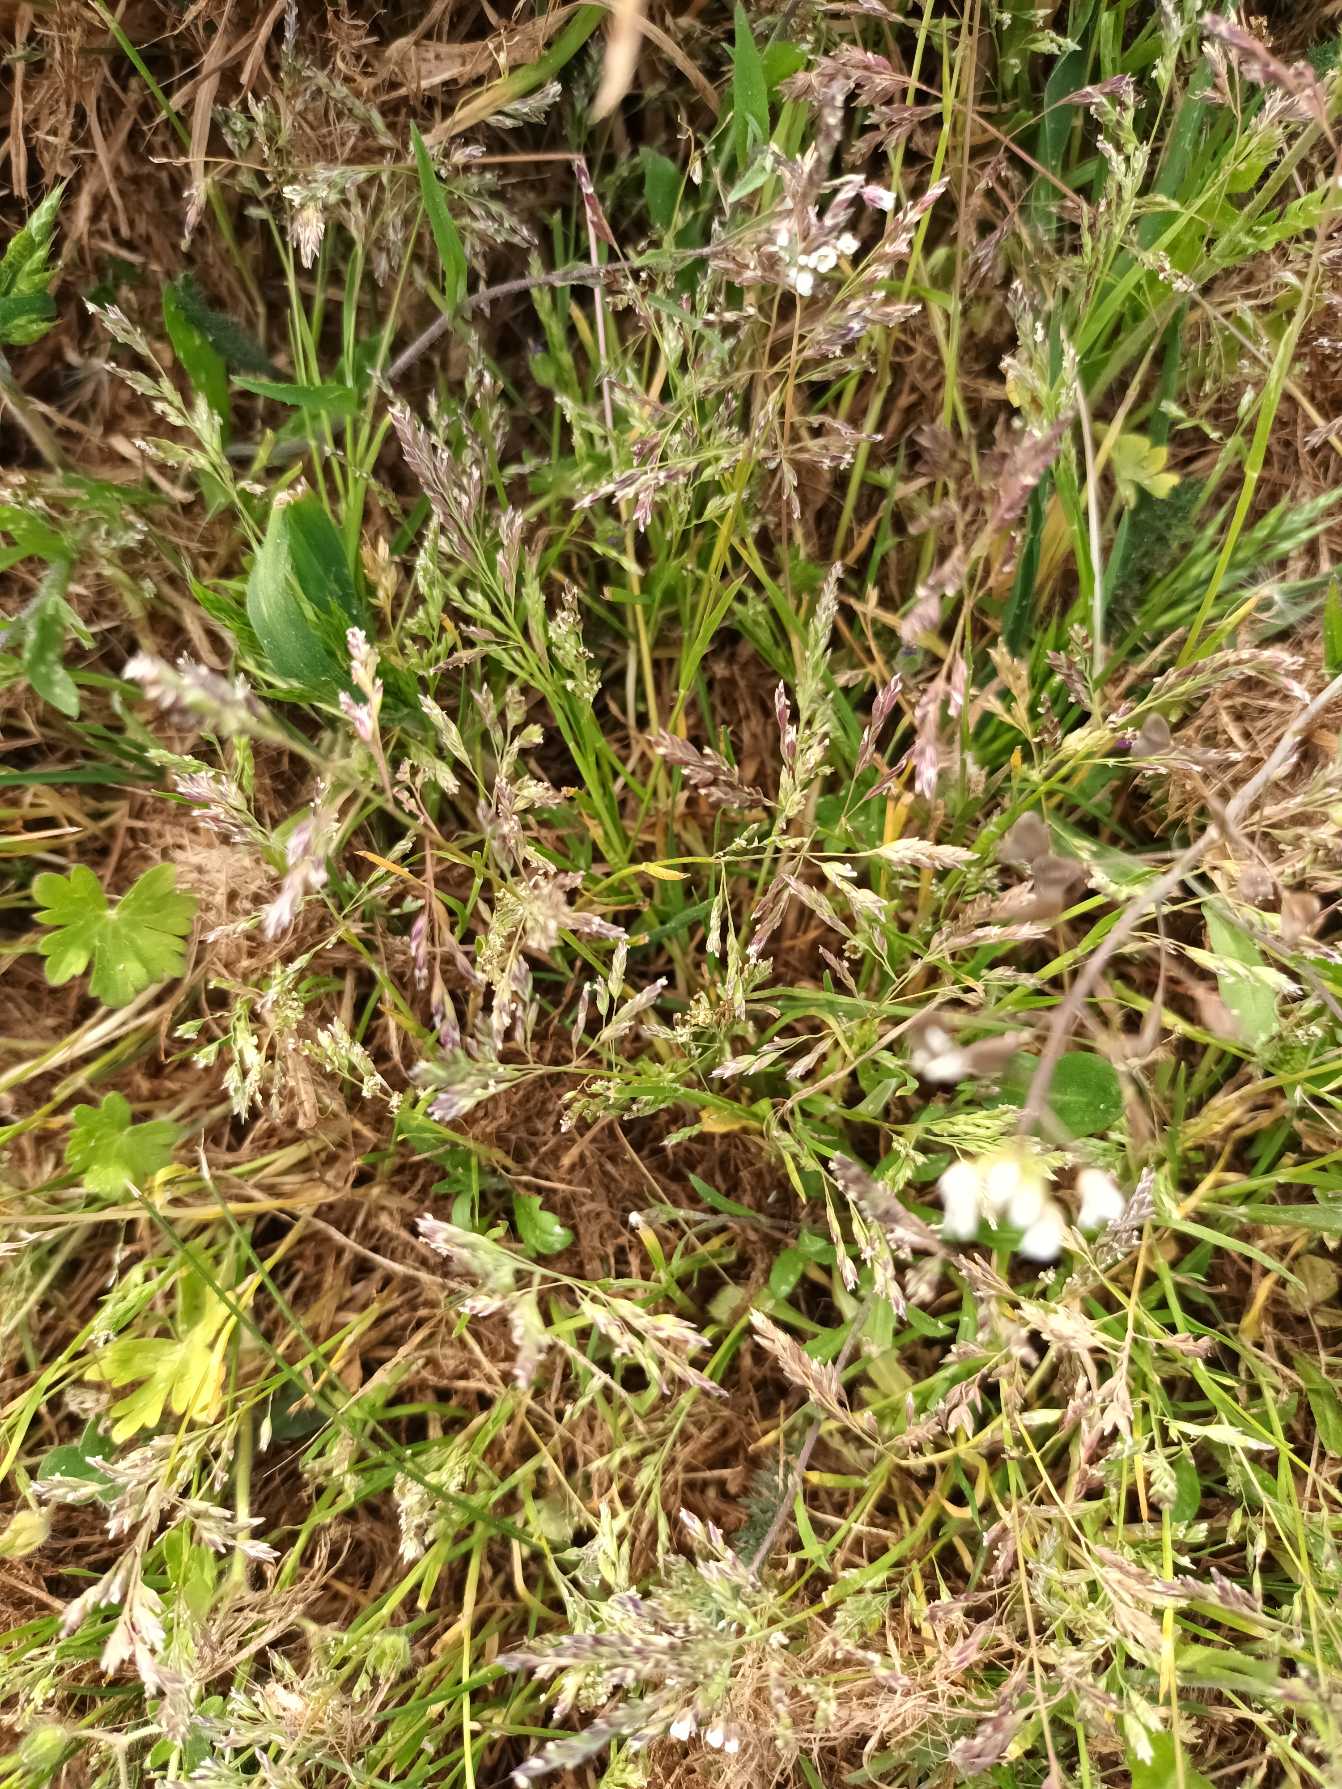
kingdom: Plantae
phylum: Tracheophyta
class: Liliopsida
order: Poales
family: Poaceae
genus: Poa
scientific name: Poa annua
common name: Enårig rapgræs
